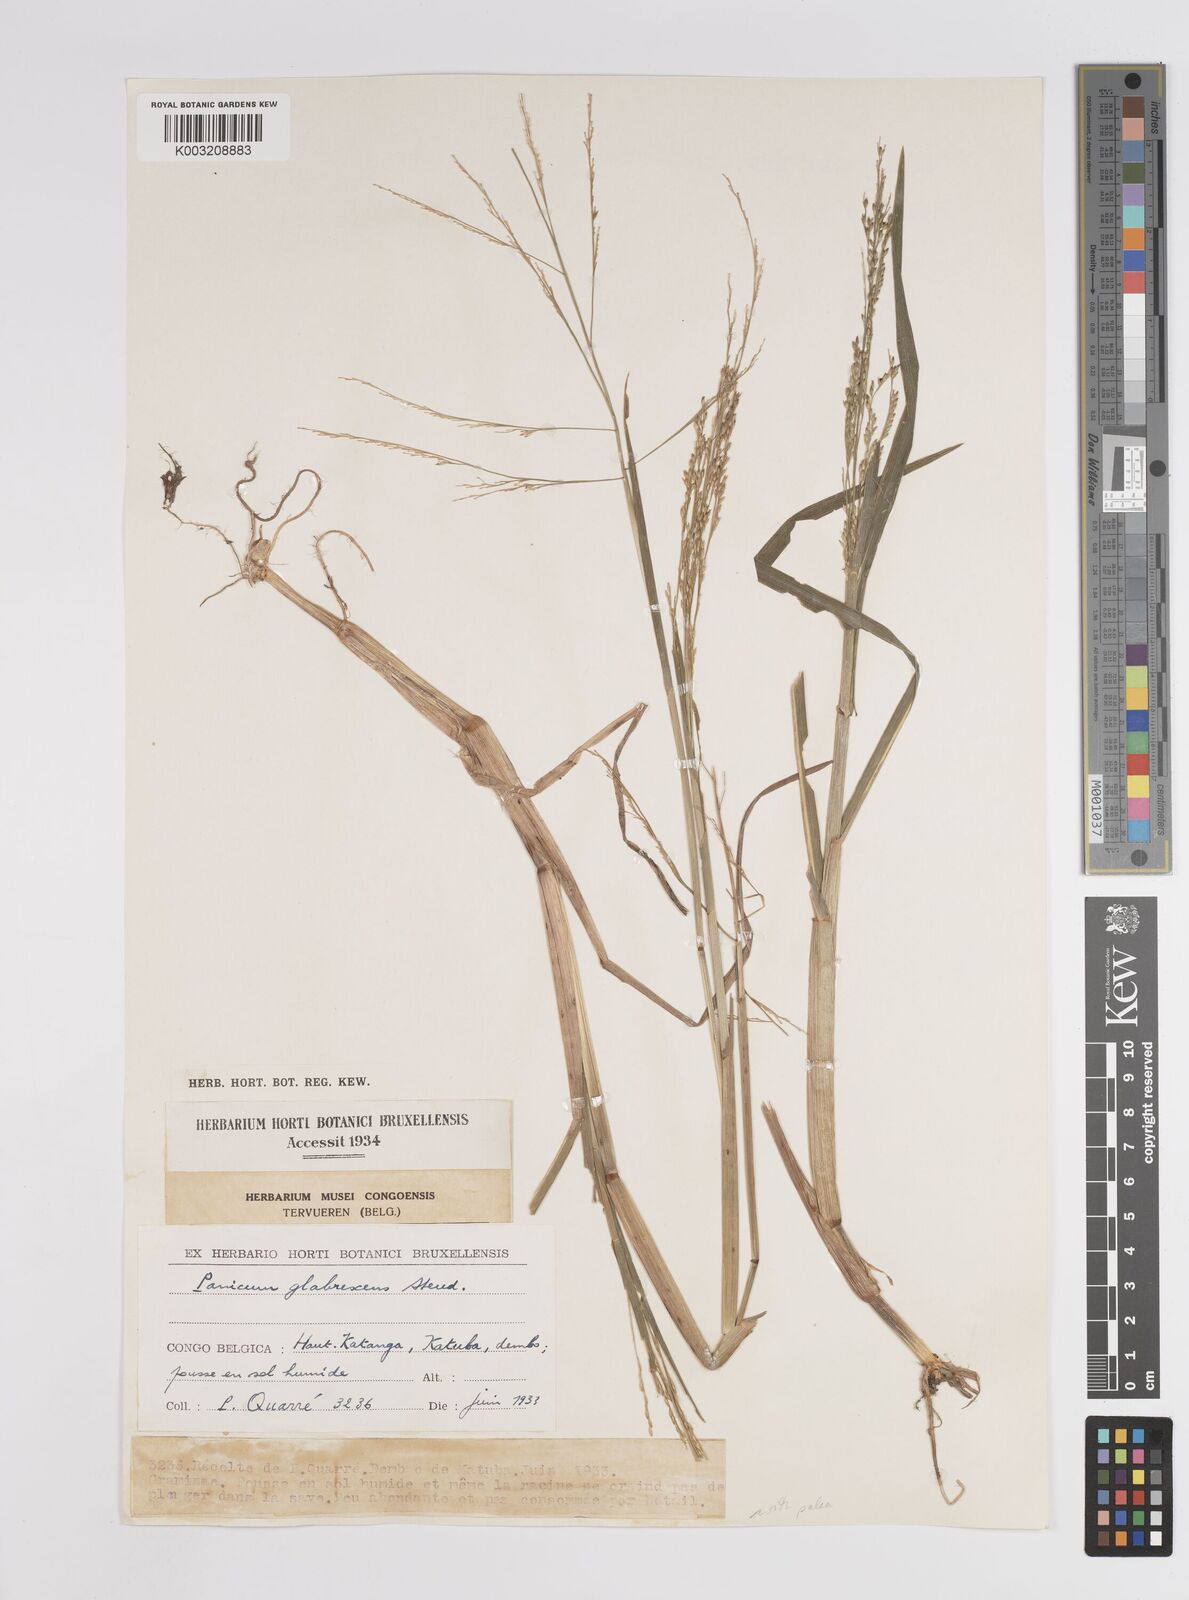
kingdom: Plantae
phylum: Tracheophyta
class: Liliopsida
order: Poales
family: Poaceae
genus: Panicum
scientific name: Panicum subalbidum
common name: Elbow buffalo grass
